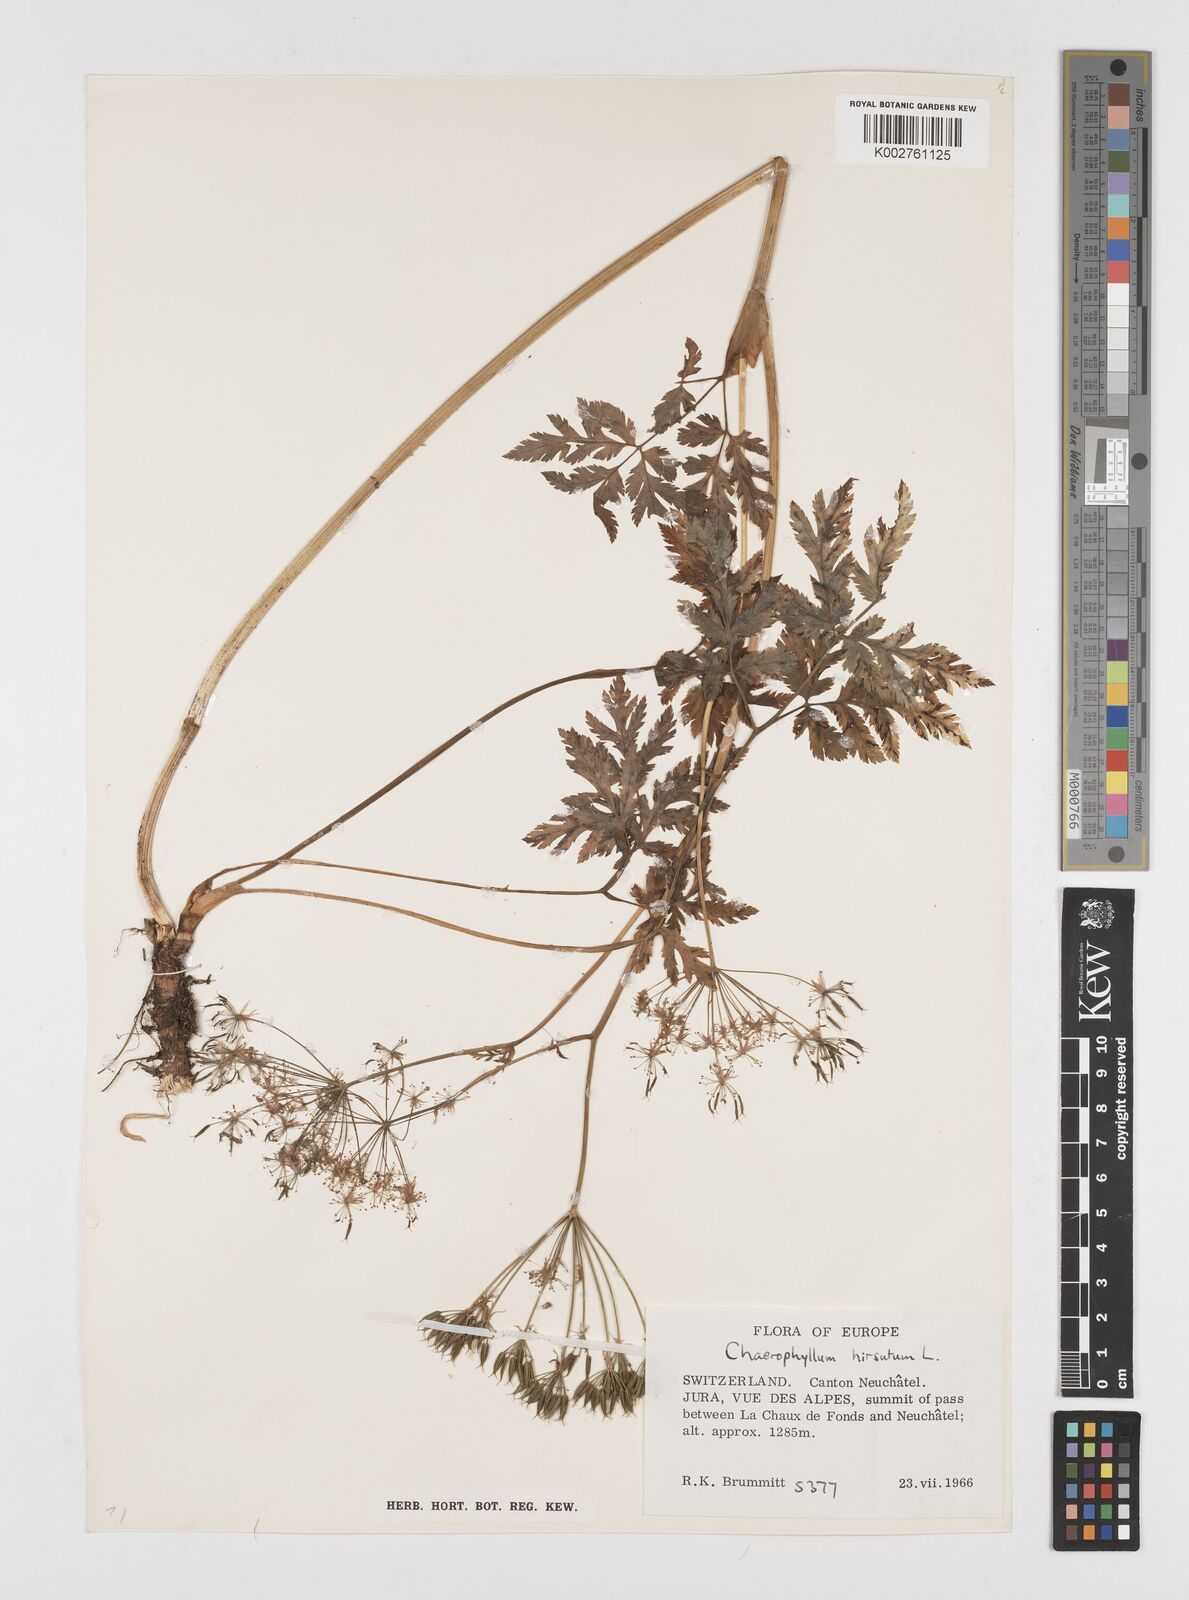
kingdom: Plantae
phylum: Tracheophyta
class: Magnoliopsida
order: Apiales
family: Apiaceae
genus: Chaerophyllum
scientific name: Chaerophyllum hirsutum
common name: Hairy chervil
